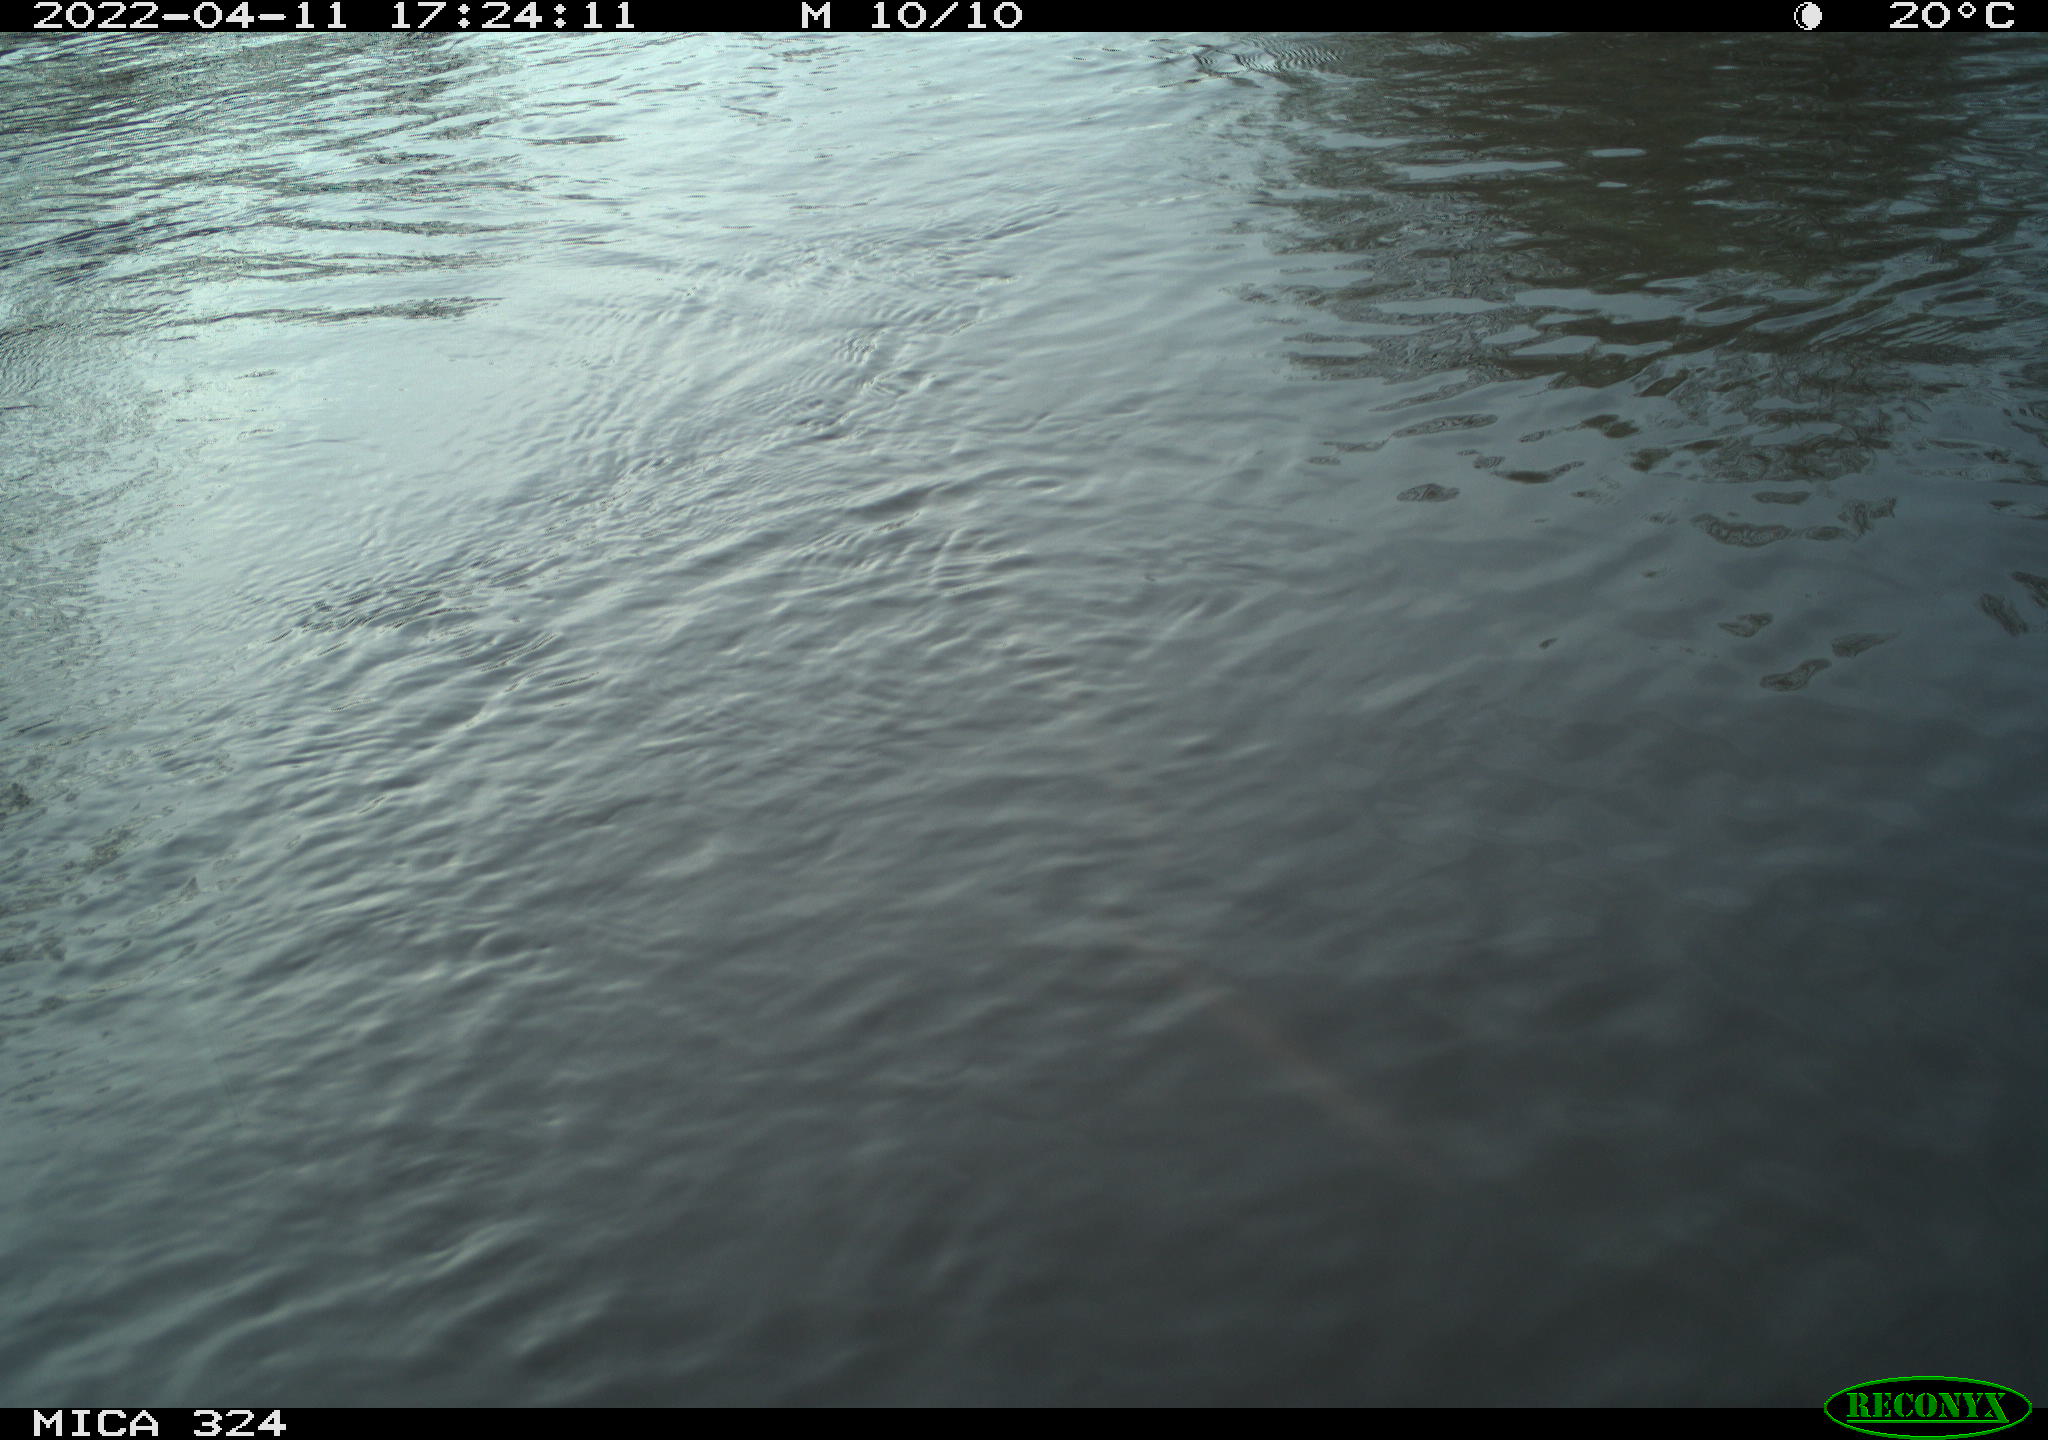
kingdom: Animalia
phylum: Chordata
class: Aves
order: Gruiformes
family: Rallidae
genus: Gallinula
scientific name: Gallinula chloropus
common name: Common moorhen
